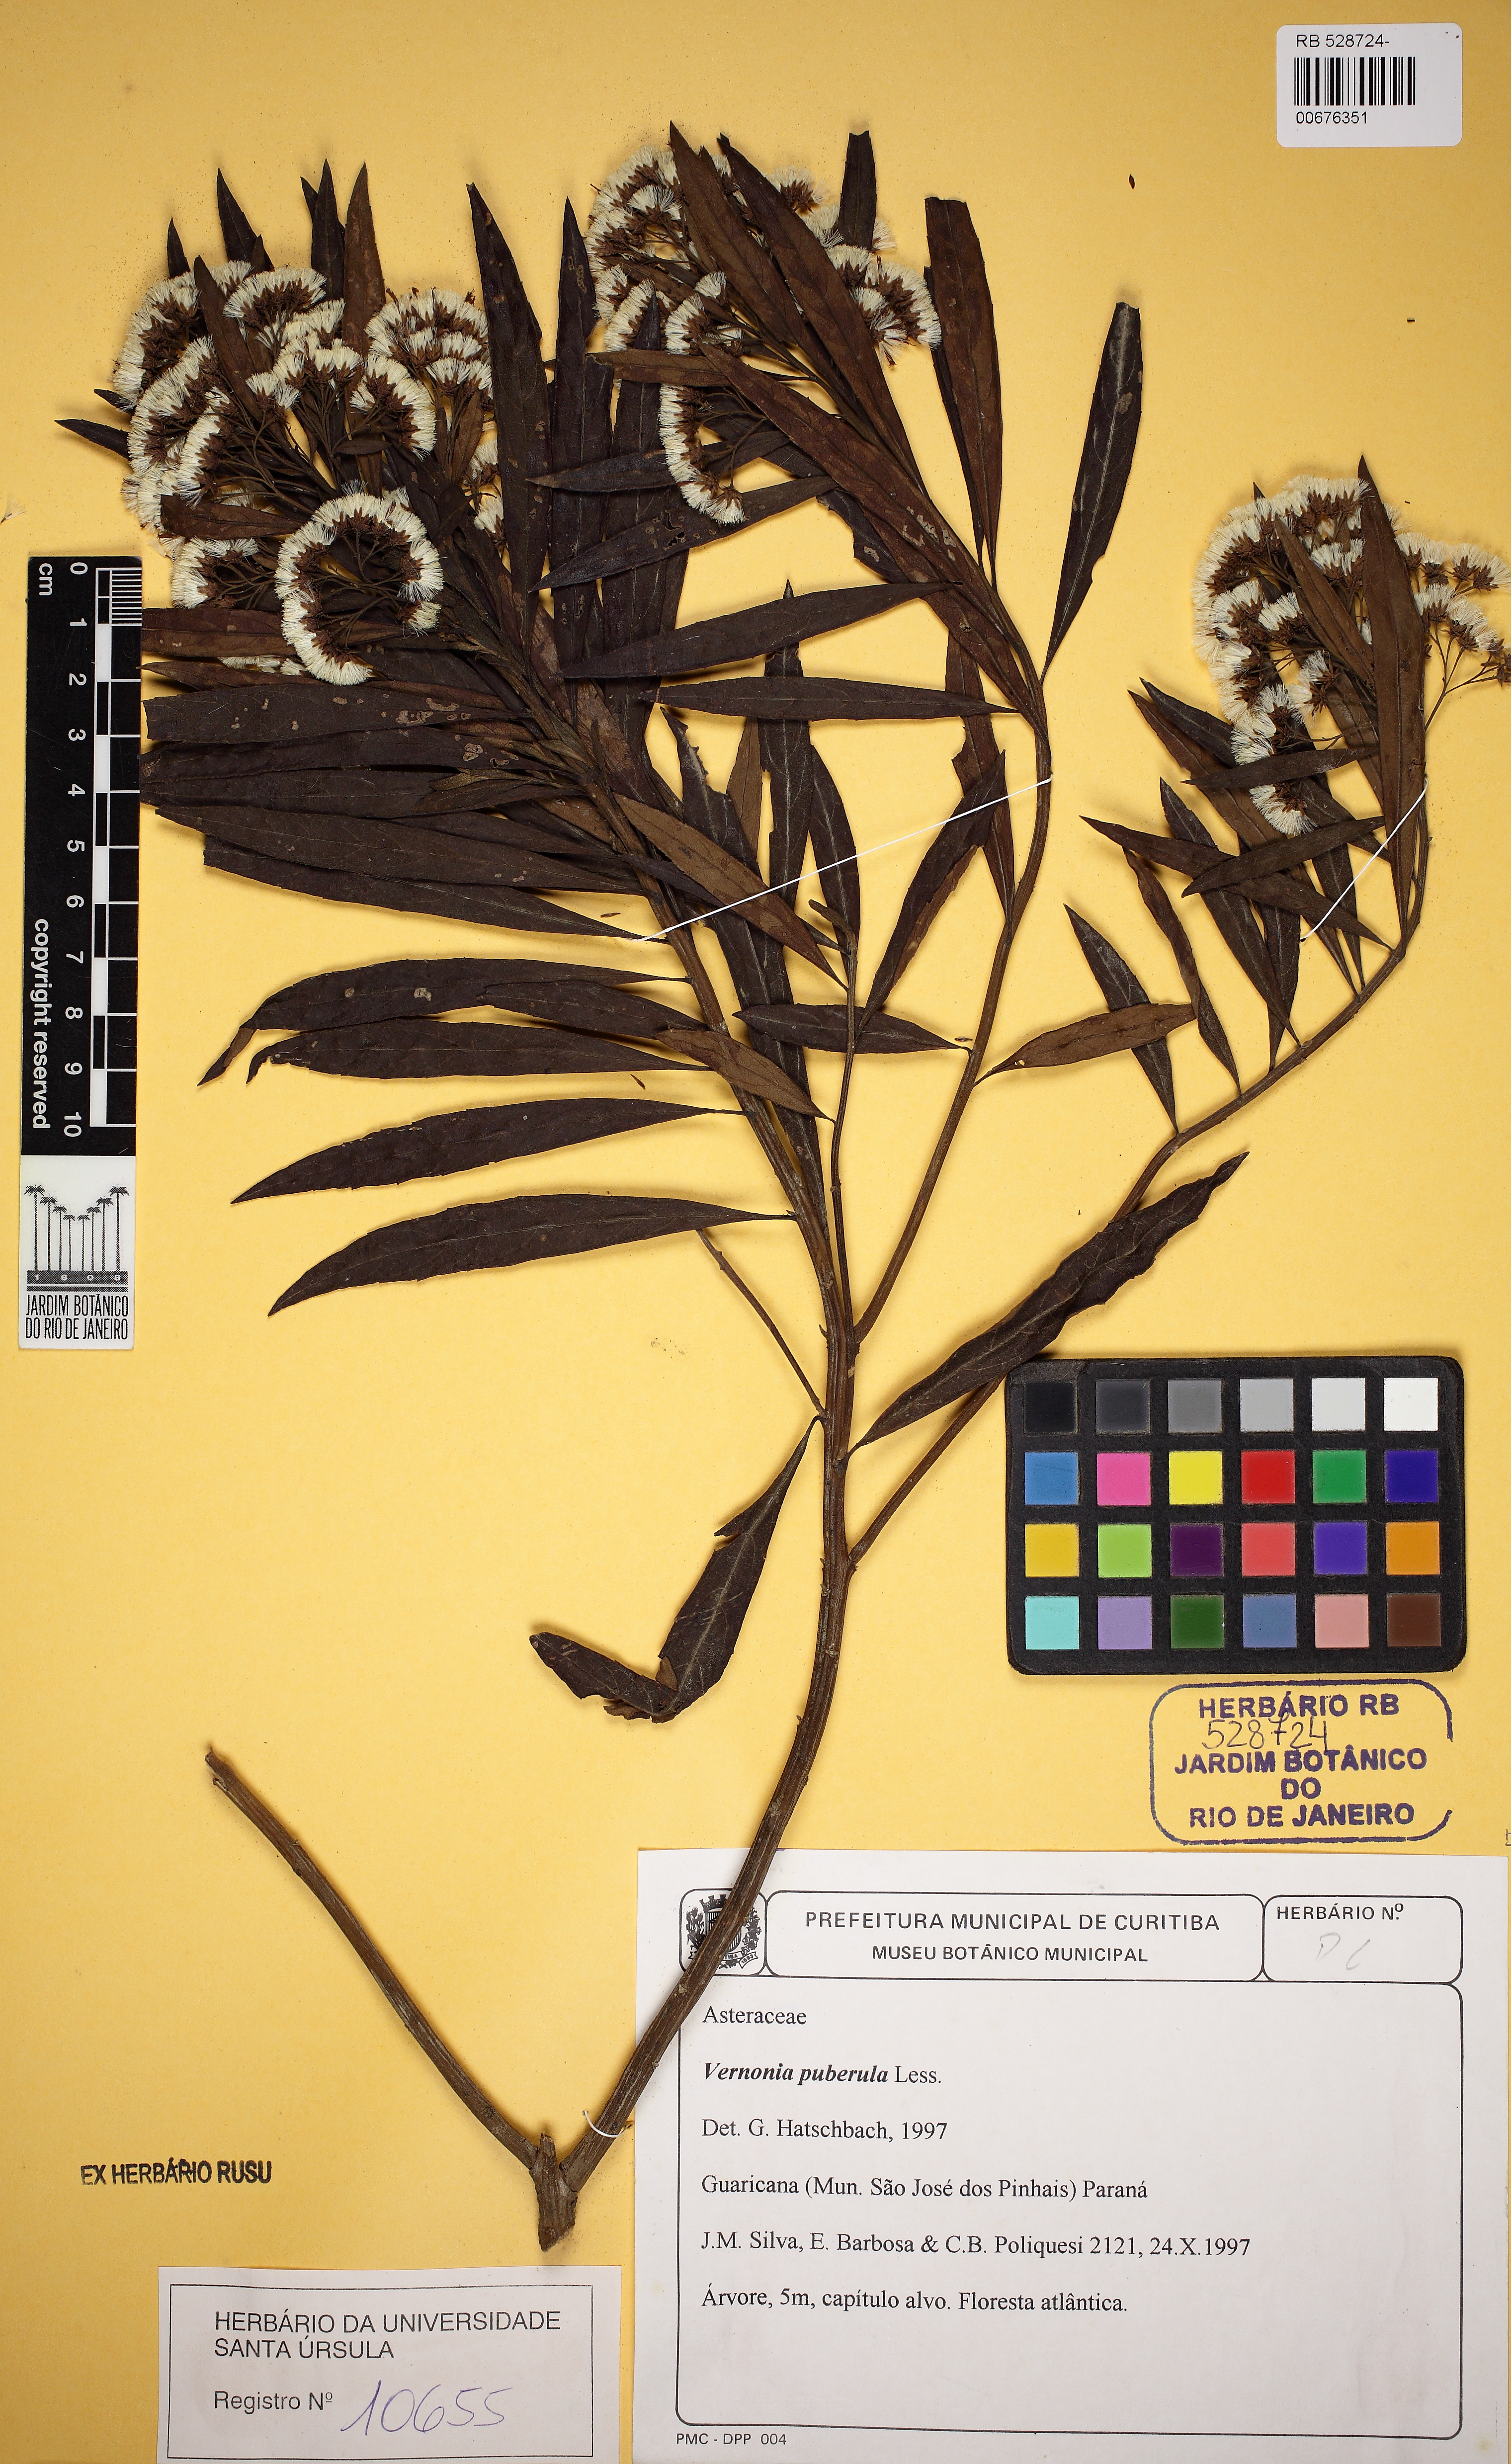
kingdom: Plantae
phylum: Tracheophyta
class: Magnoliopsida
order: Asterales
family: Asteraceae
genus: Vernonanthura
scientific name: Vernonanthura puberula
